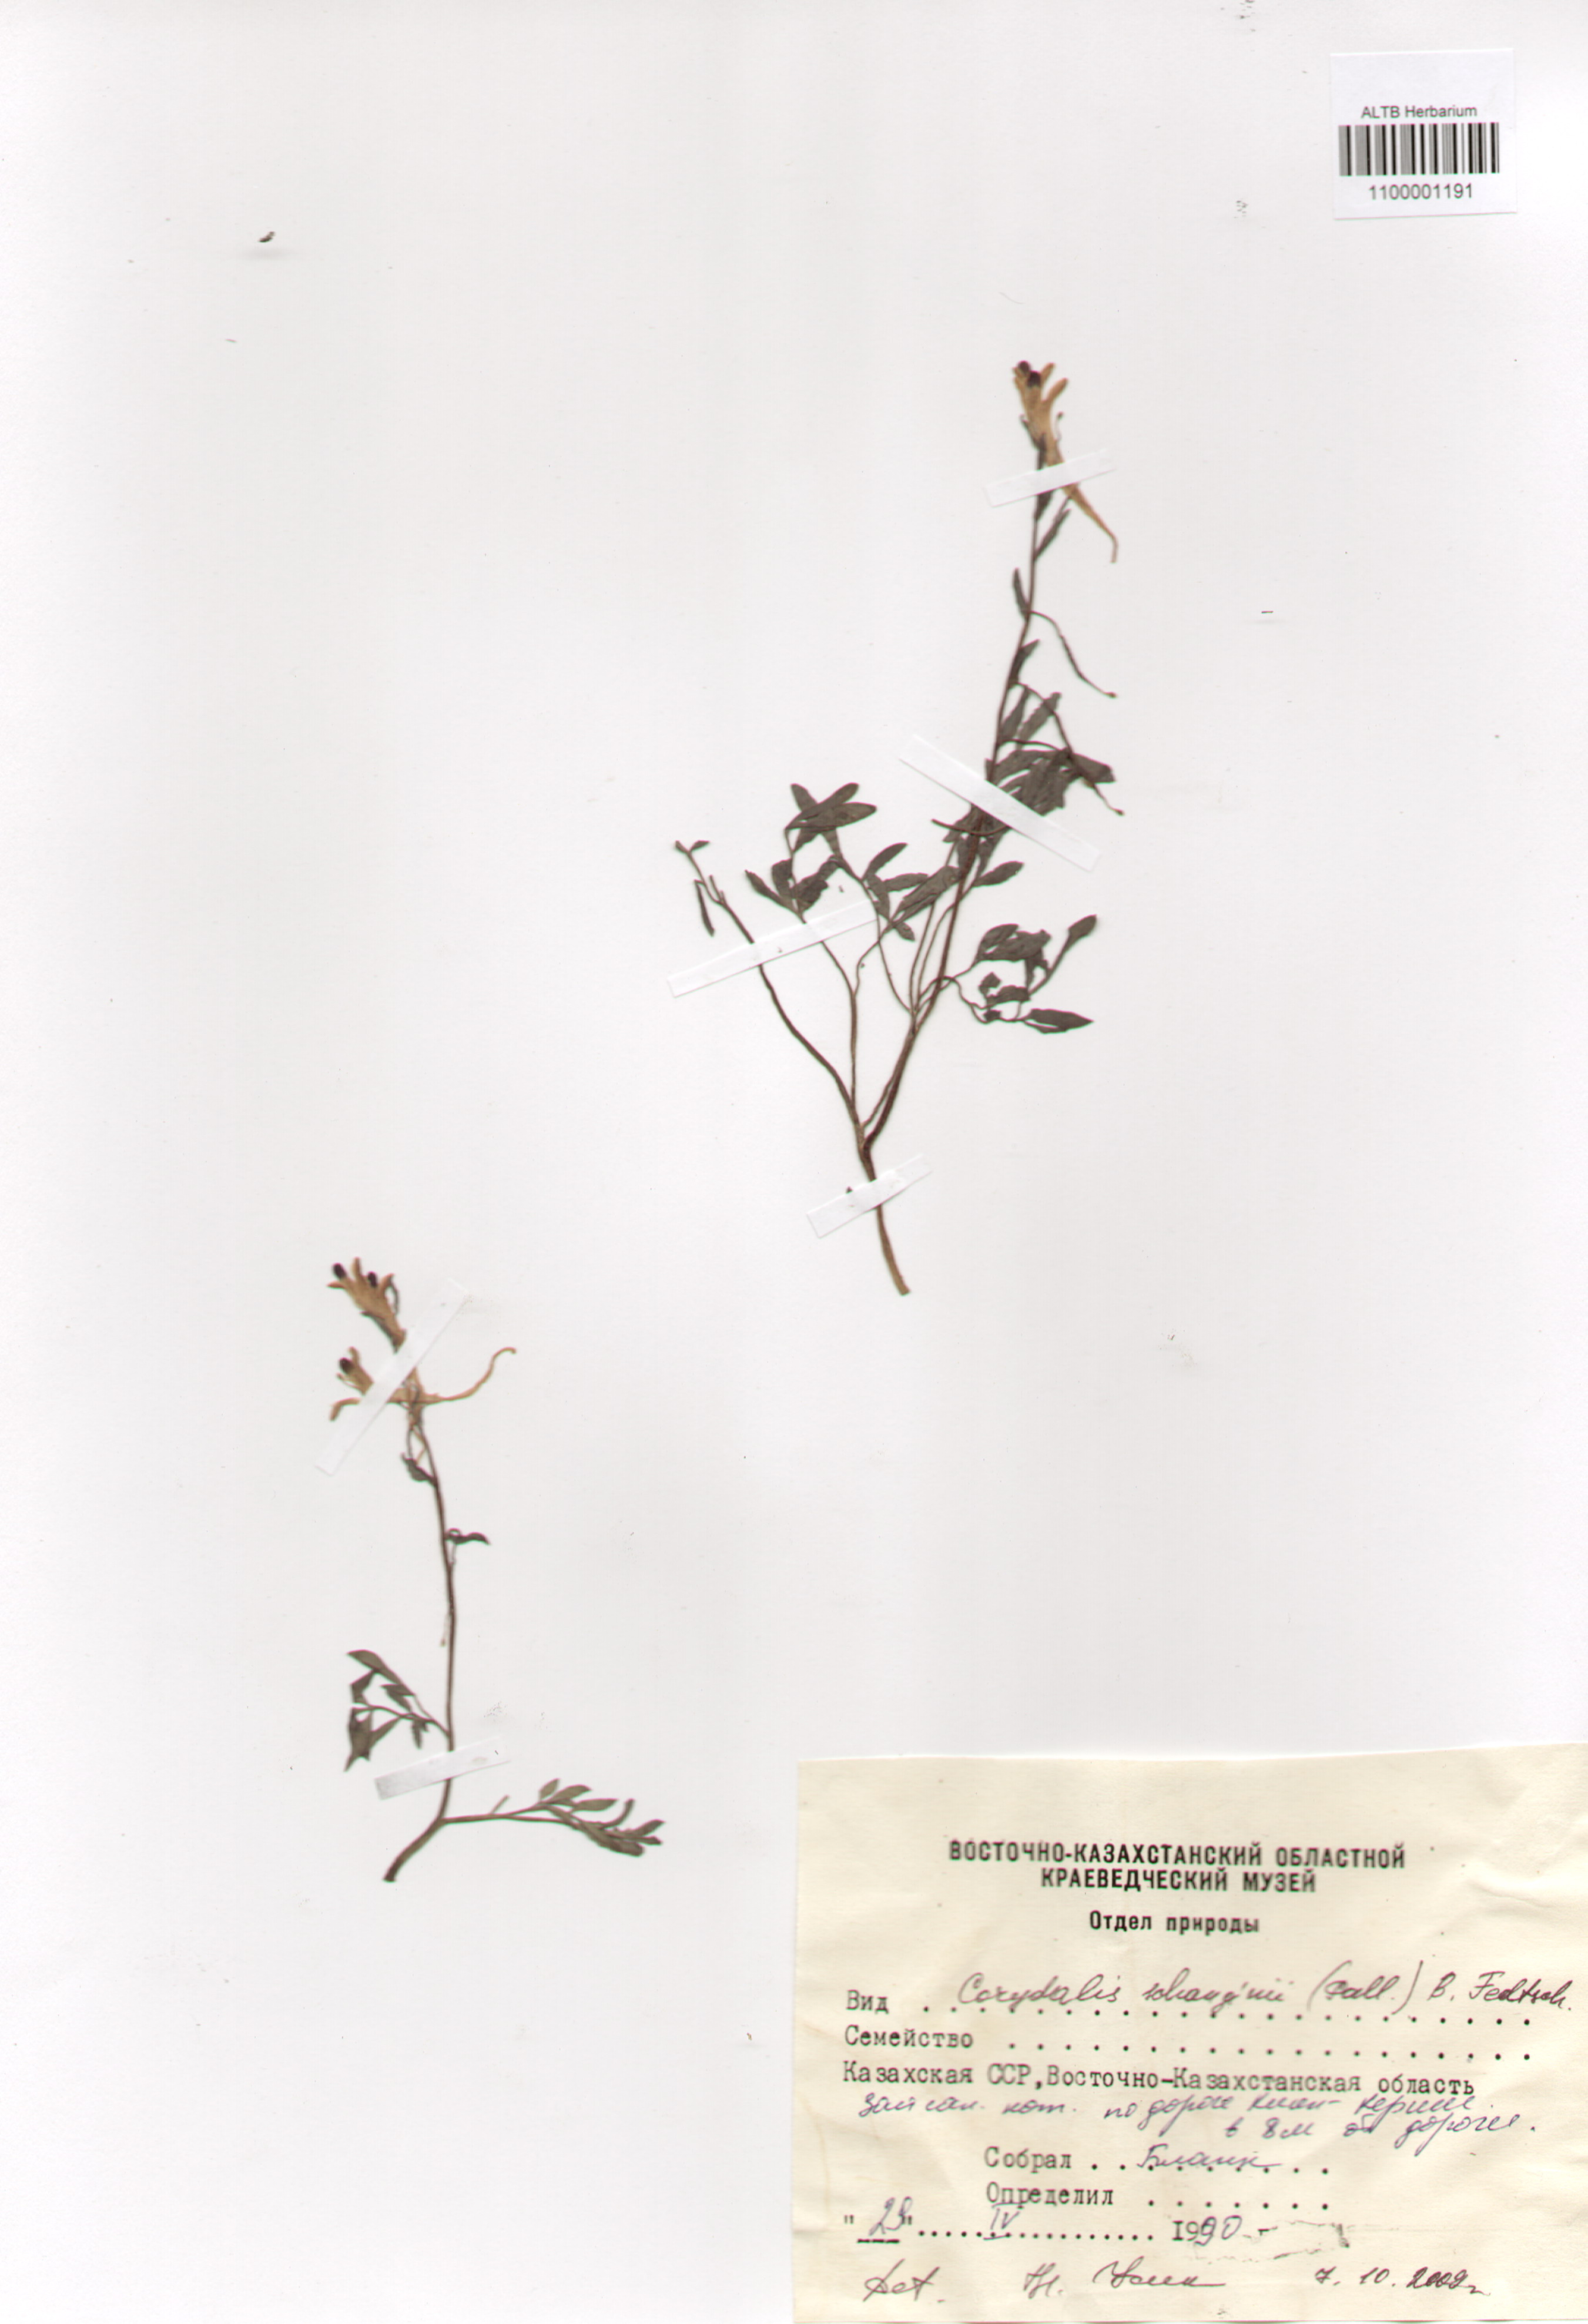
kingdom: Plantae
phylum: Tracheophyta
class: Magnoliopsida
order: Ranunculales
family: Papaveraceae
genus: Corydalis
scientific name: Corydalis schanginii
